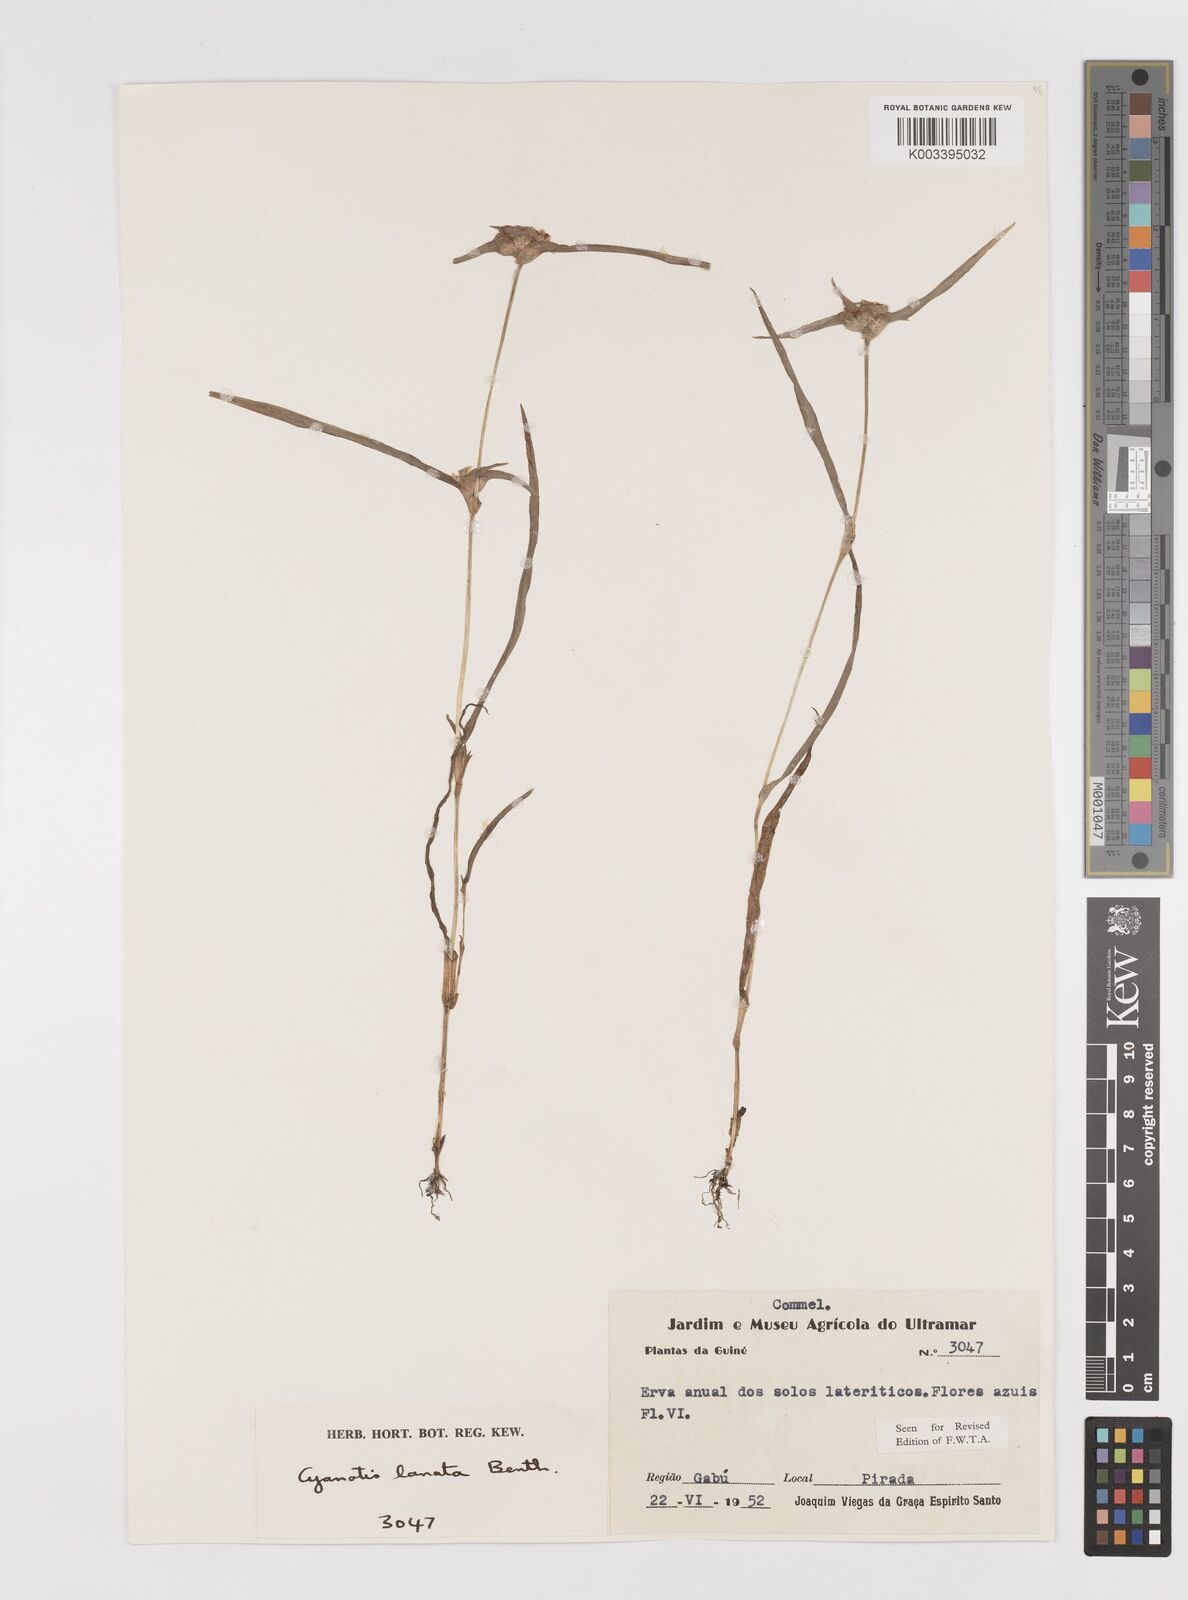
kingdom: Plantae
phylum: Tracheophyta
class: Liliopsida
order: Commelinales
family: Commelinaceae
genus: Cyanotis
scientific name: Cyanotis lanata
